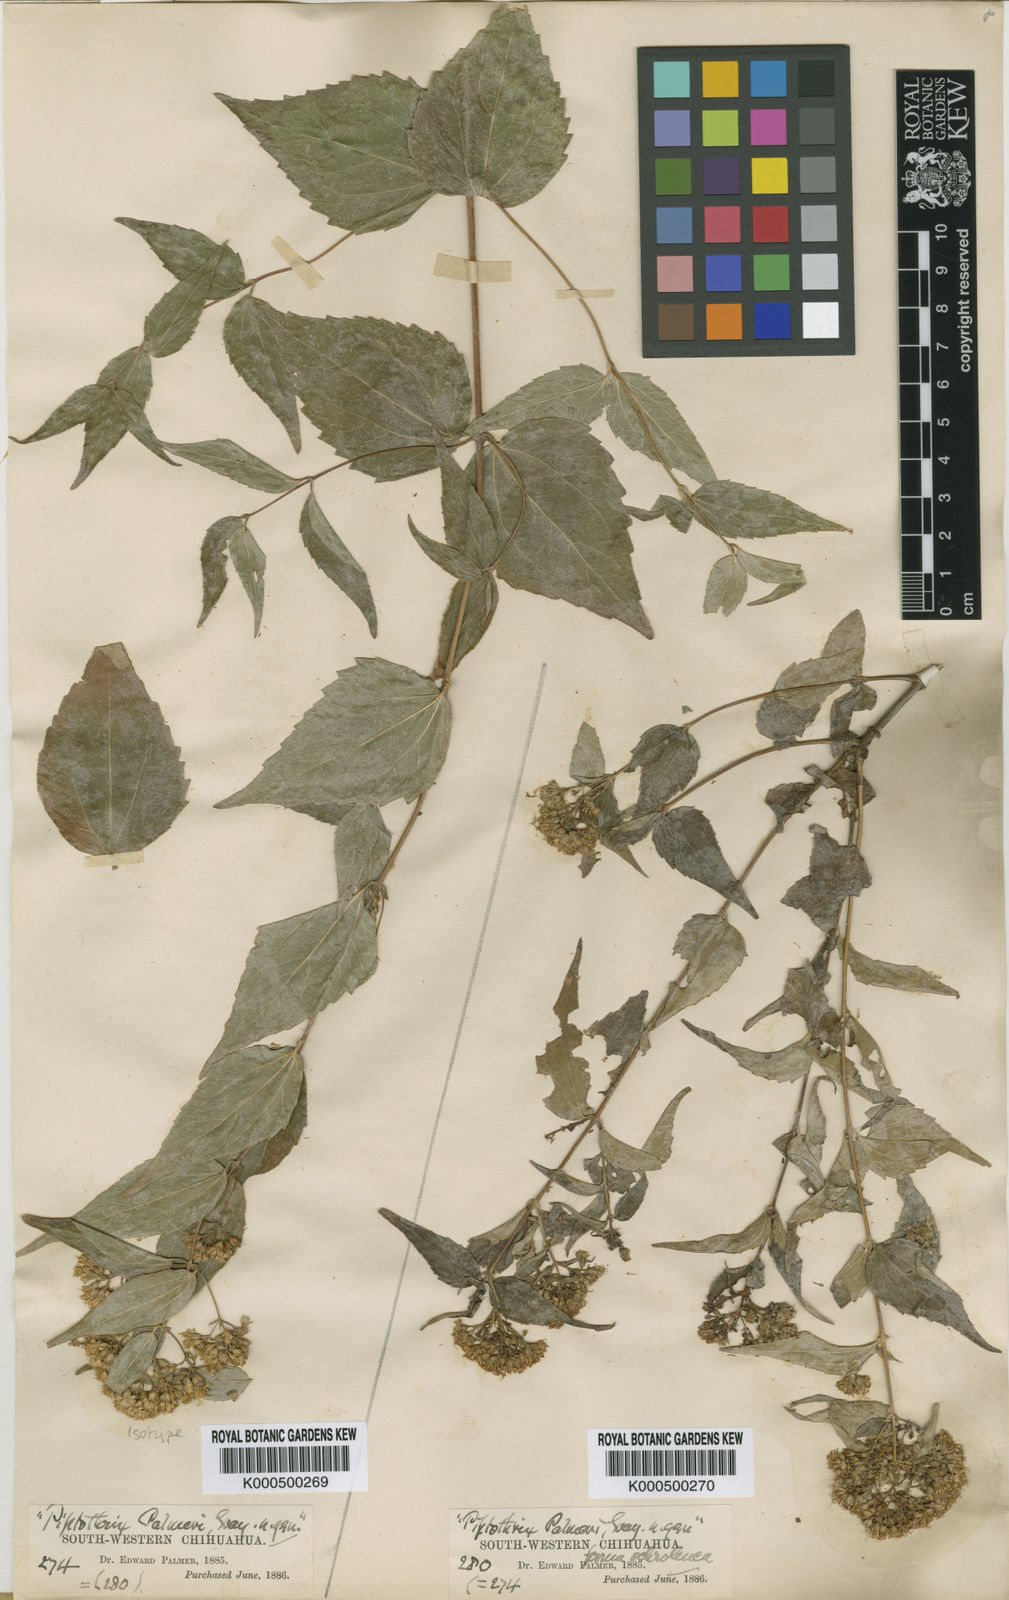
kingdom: Plantae
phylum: Tracheophyta
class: Magnoliopsida
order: Asterales
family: Asteraceae
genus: Ageratina
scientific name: Ageratina palmeri
